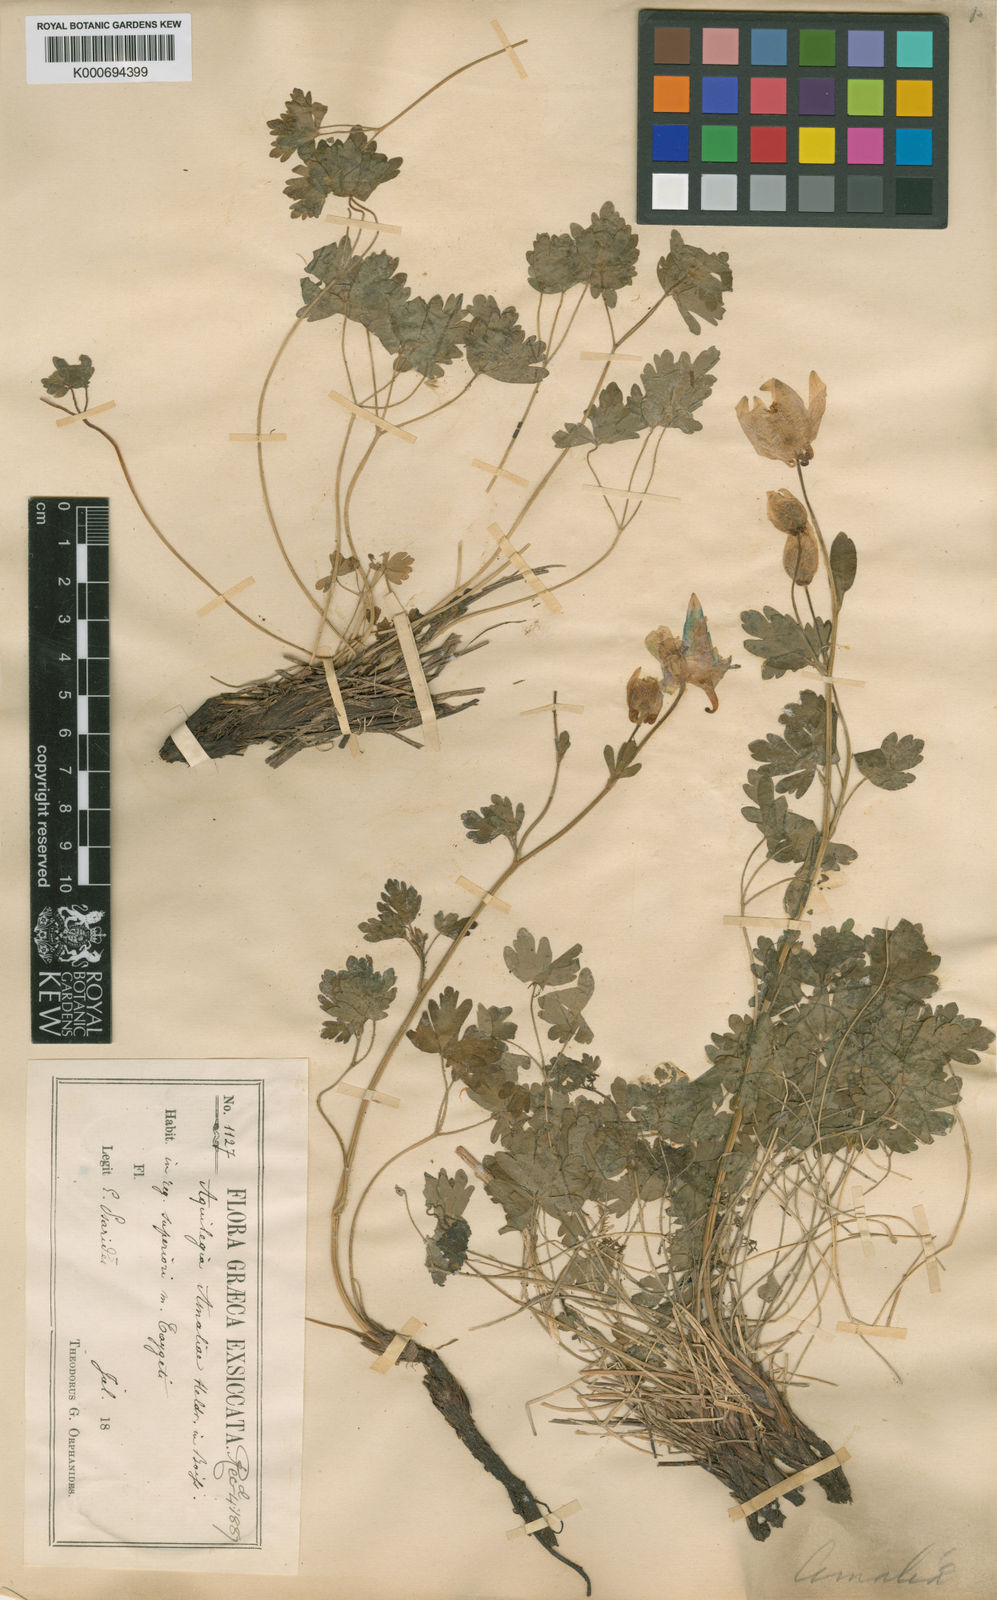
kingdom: Plantae
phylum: Tracheophyta
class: Magnoliopsida
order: Ranunculales
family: Ranunculaceae
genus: Aquilegia
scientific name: Aquilegia
